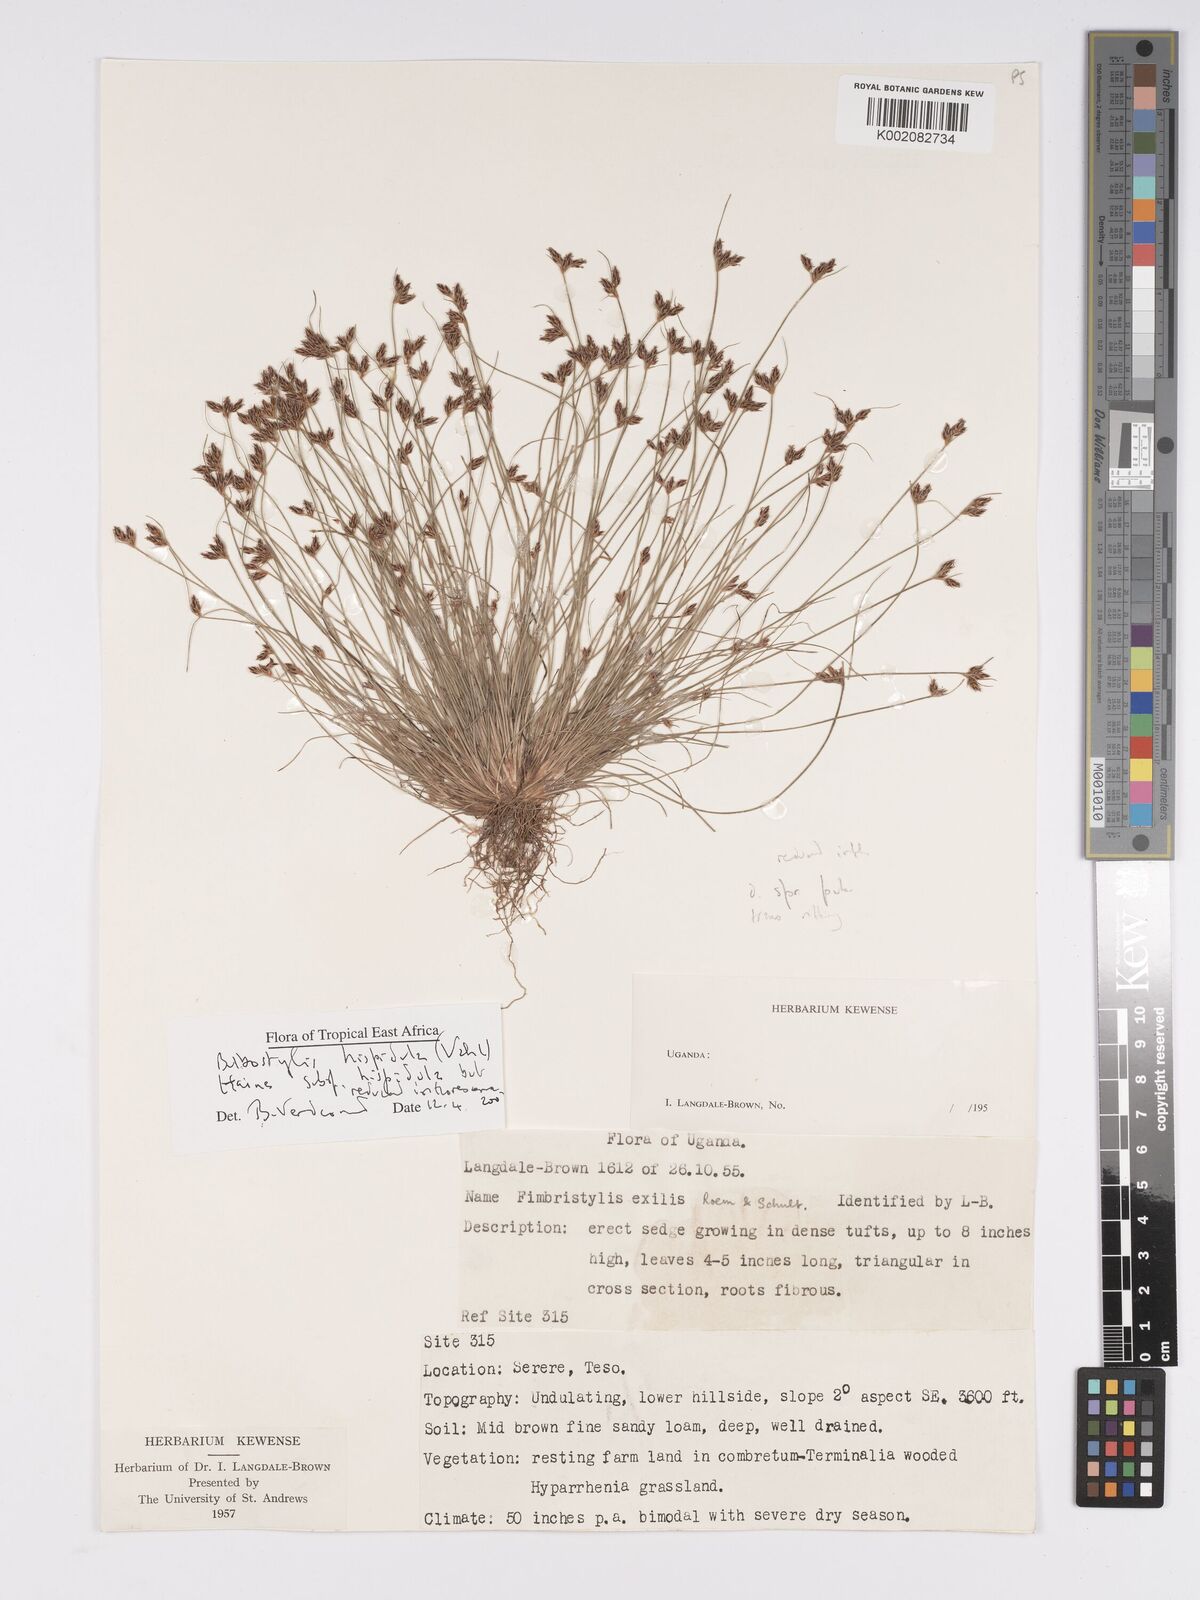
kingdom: Plantae
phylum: Tracheophyta
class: Magnoliopsida
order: Asterales
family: Asteraceae
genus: Bulbostylis
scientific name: Bulbostylis
